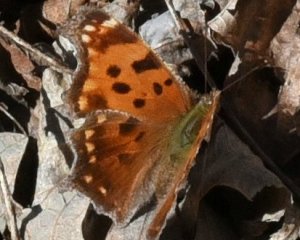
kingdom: Animalia
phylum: Arthropoda
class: Insecta
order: Lepidoptera
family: Nymphalidae
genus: Polygonia
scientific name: Polygonia comma
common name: Eastern Comma
